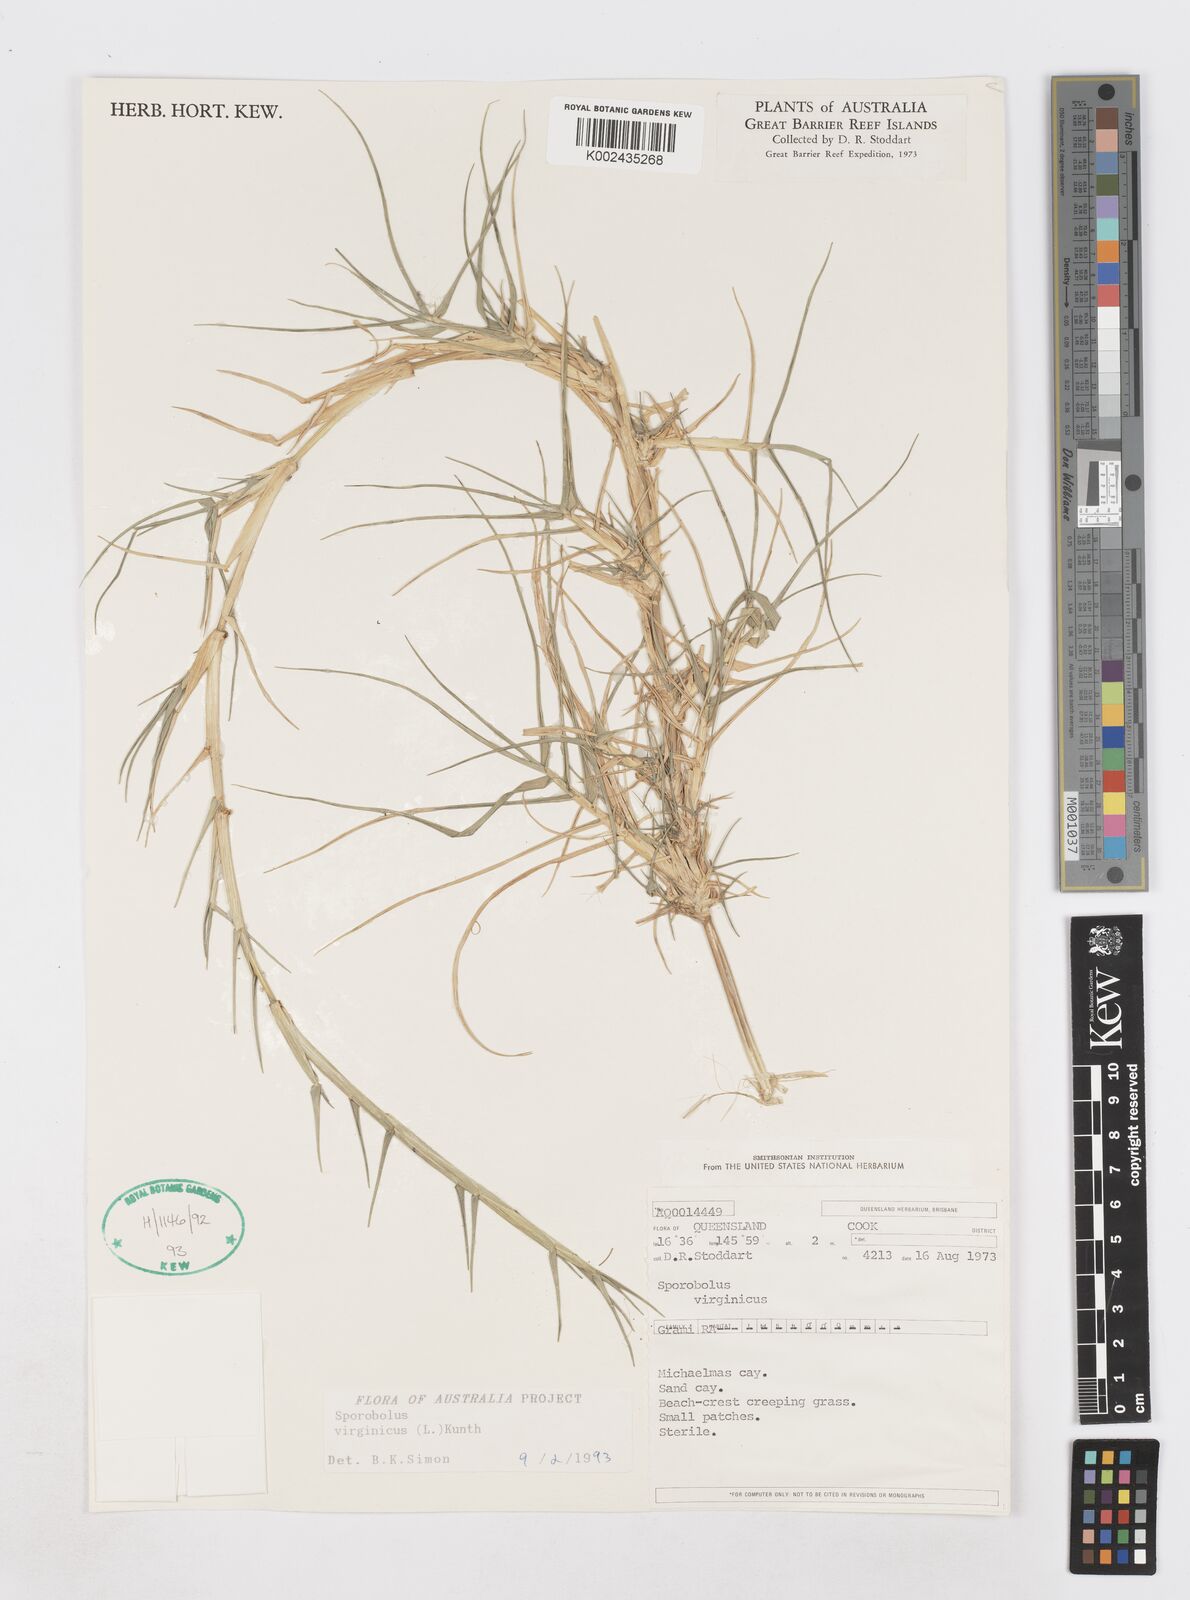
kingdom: Plantae
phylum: Tracheophyta
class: Liliopsida
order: Poales
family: Poaceae
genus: Sporobolus
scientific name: Sporobolus virginicus
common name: Beach dropseed
